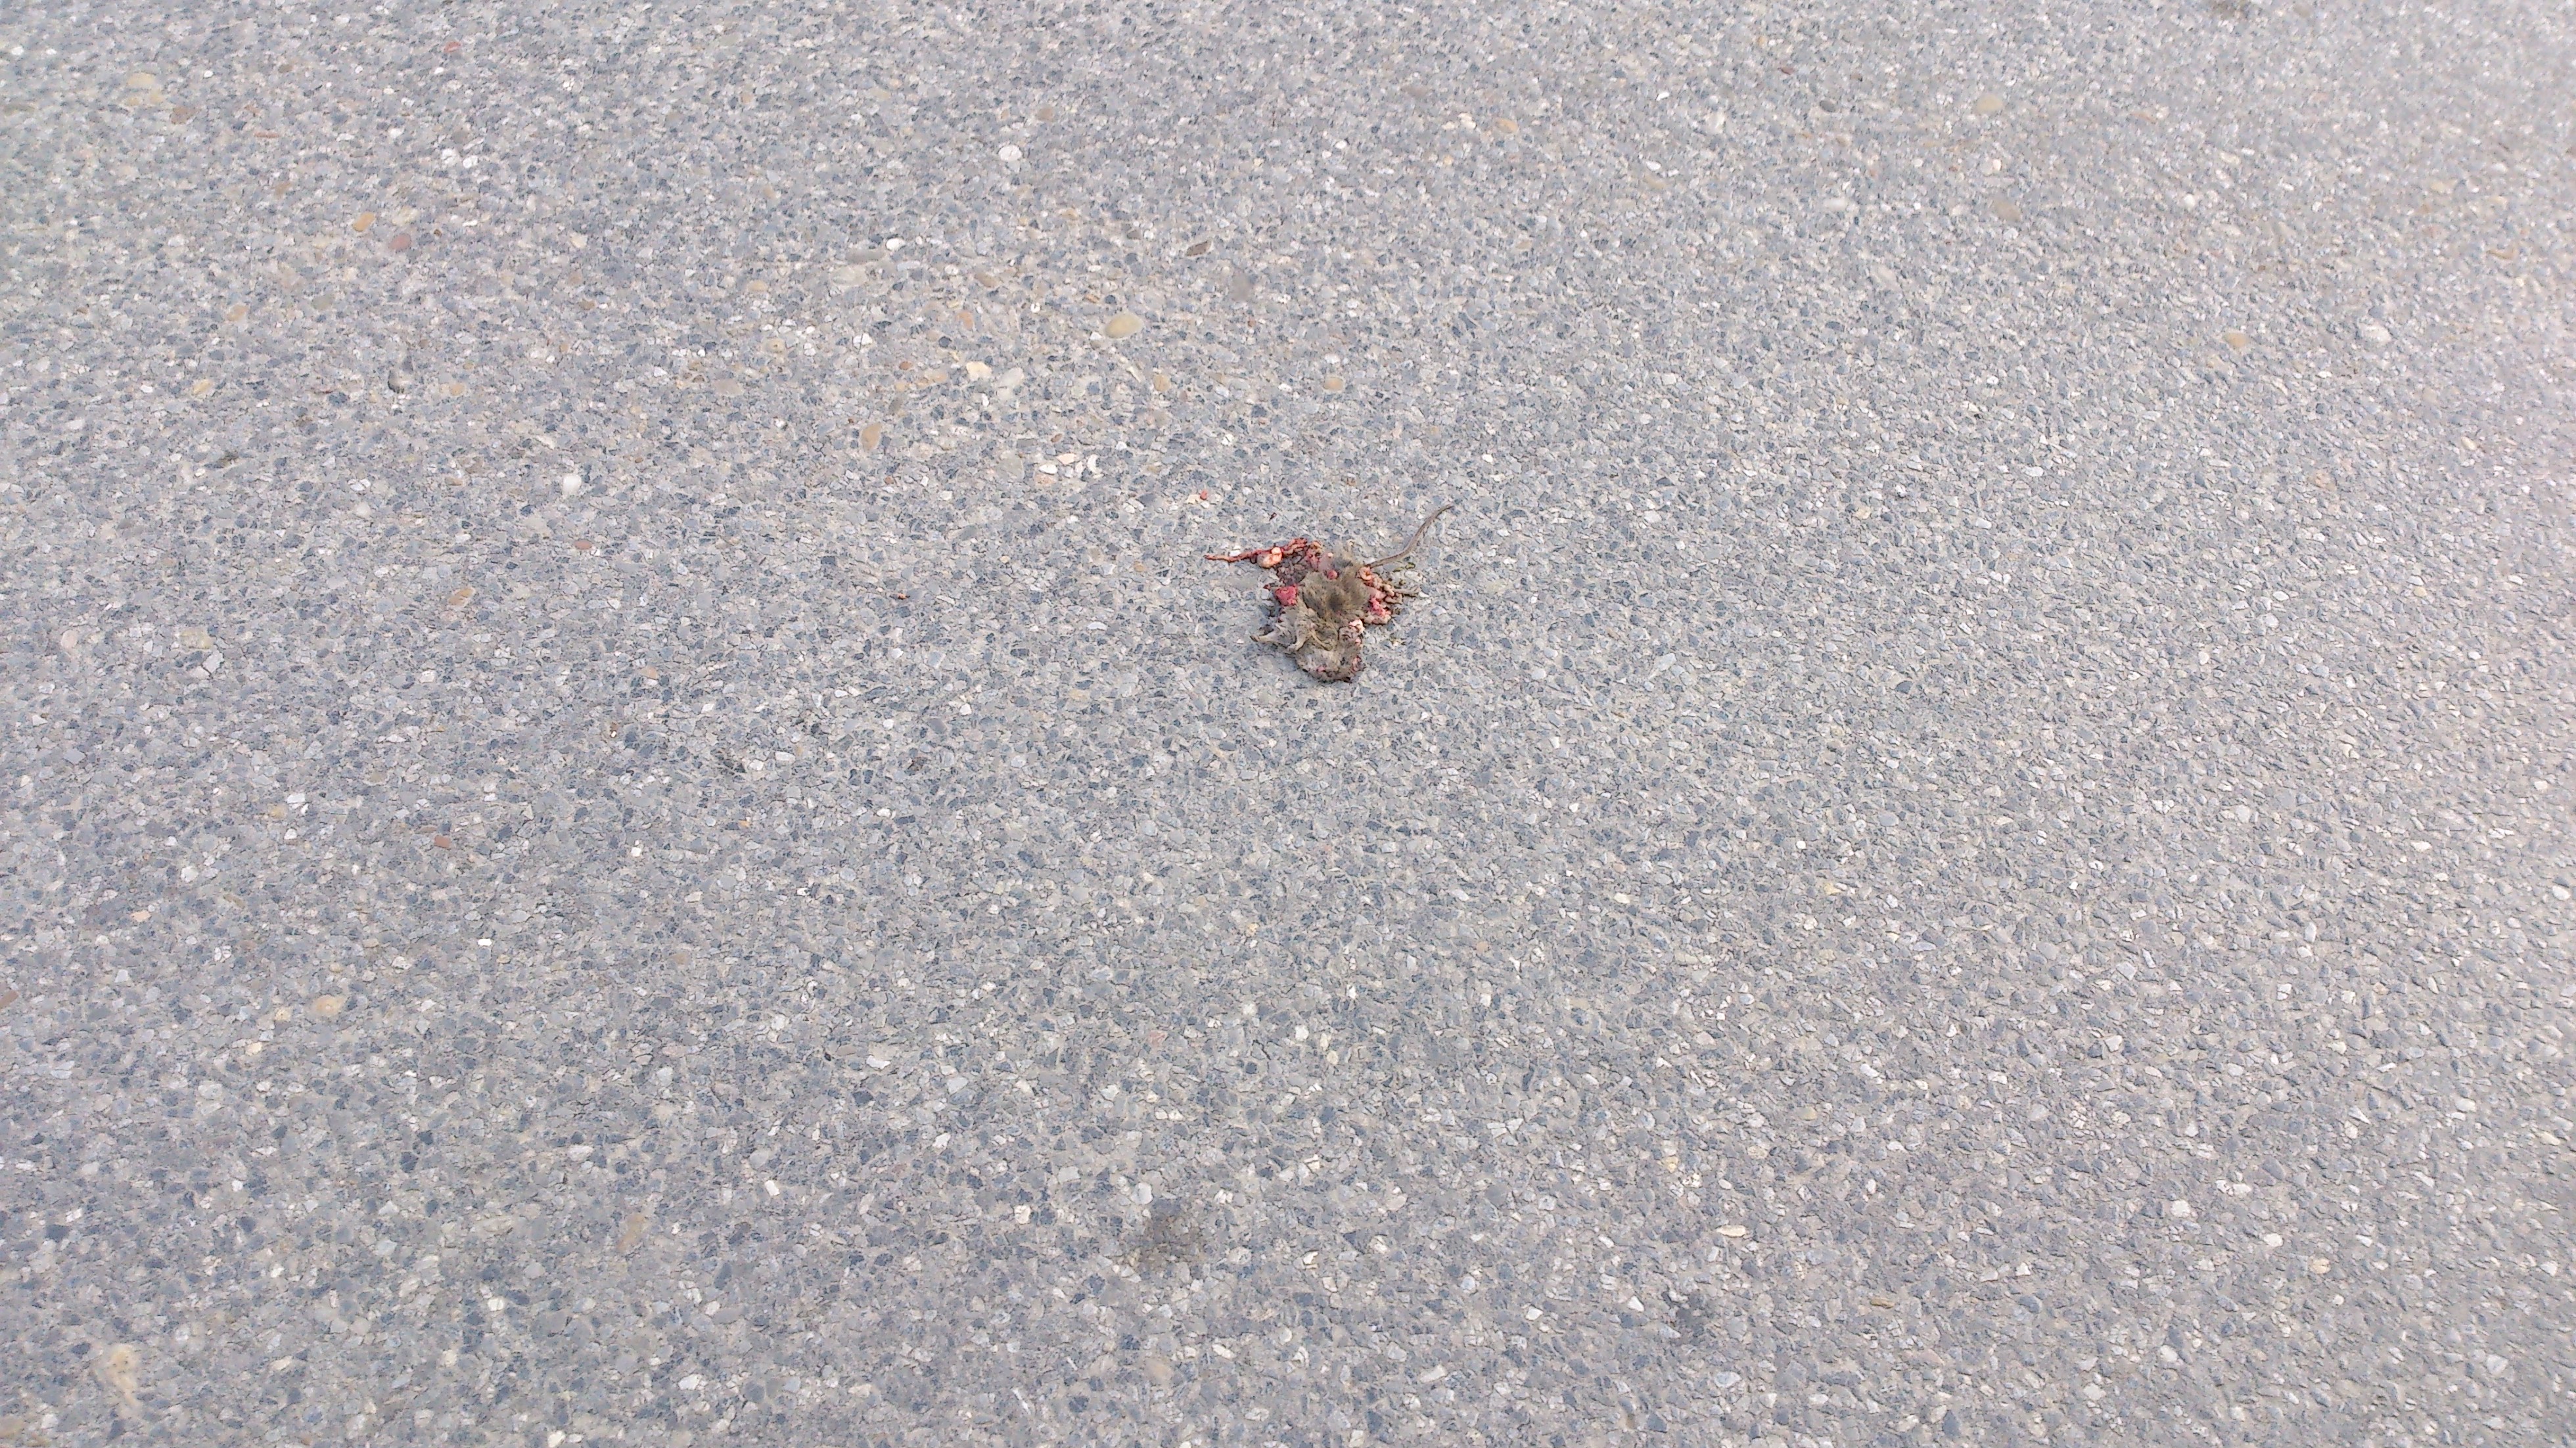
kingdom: Animalia
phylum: Chordata
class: Mammalia
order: Rodentia
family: Muridae
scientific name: Muridae
